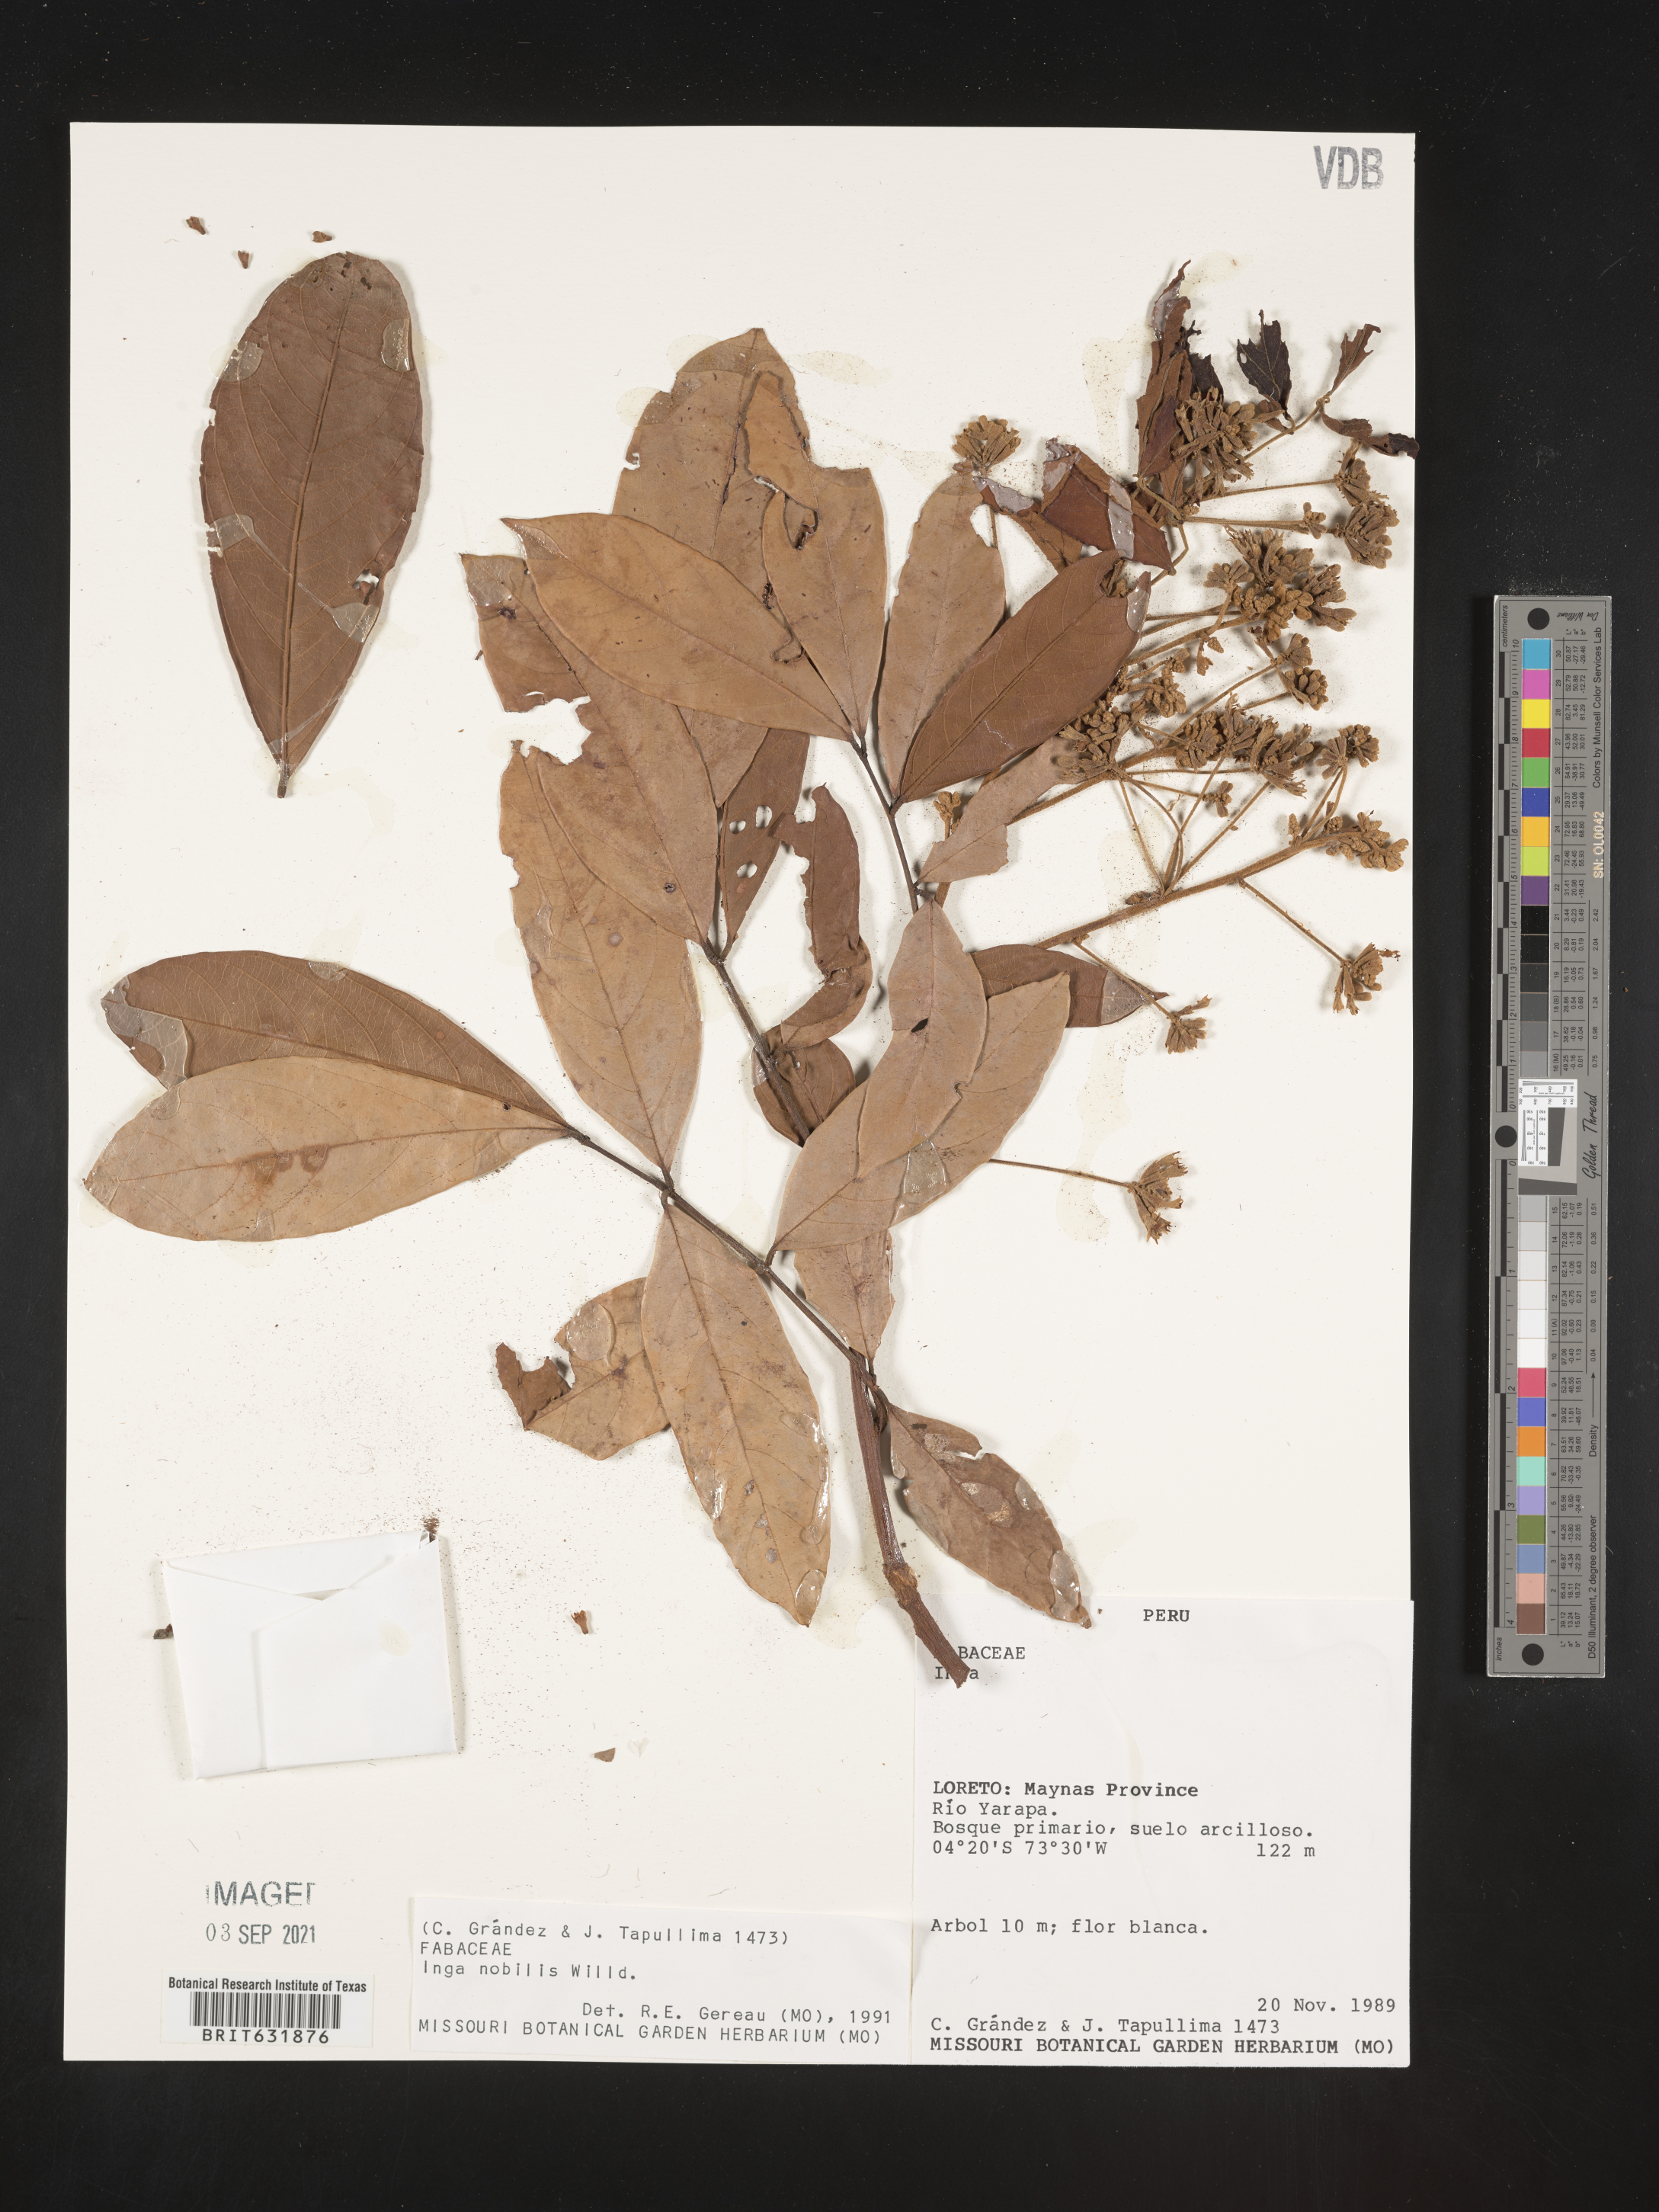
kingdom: Plantae
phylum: Tracheophyta
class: Magnoliopsida
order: Fabales
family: Fabaceae
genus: Inga
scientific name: Inga
